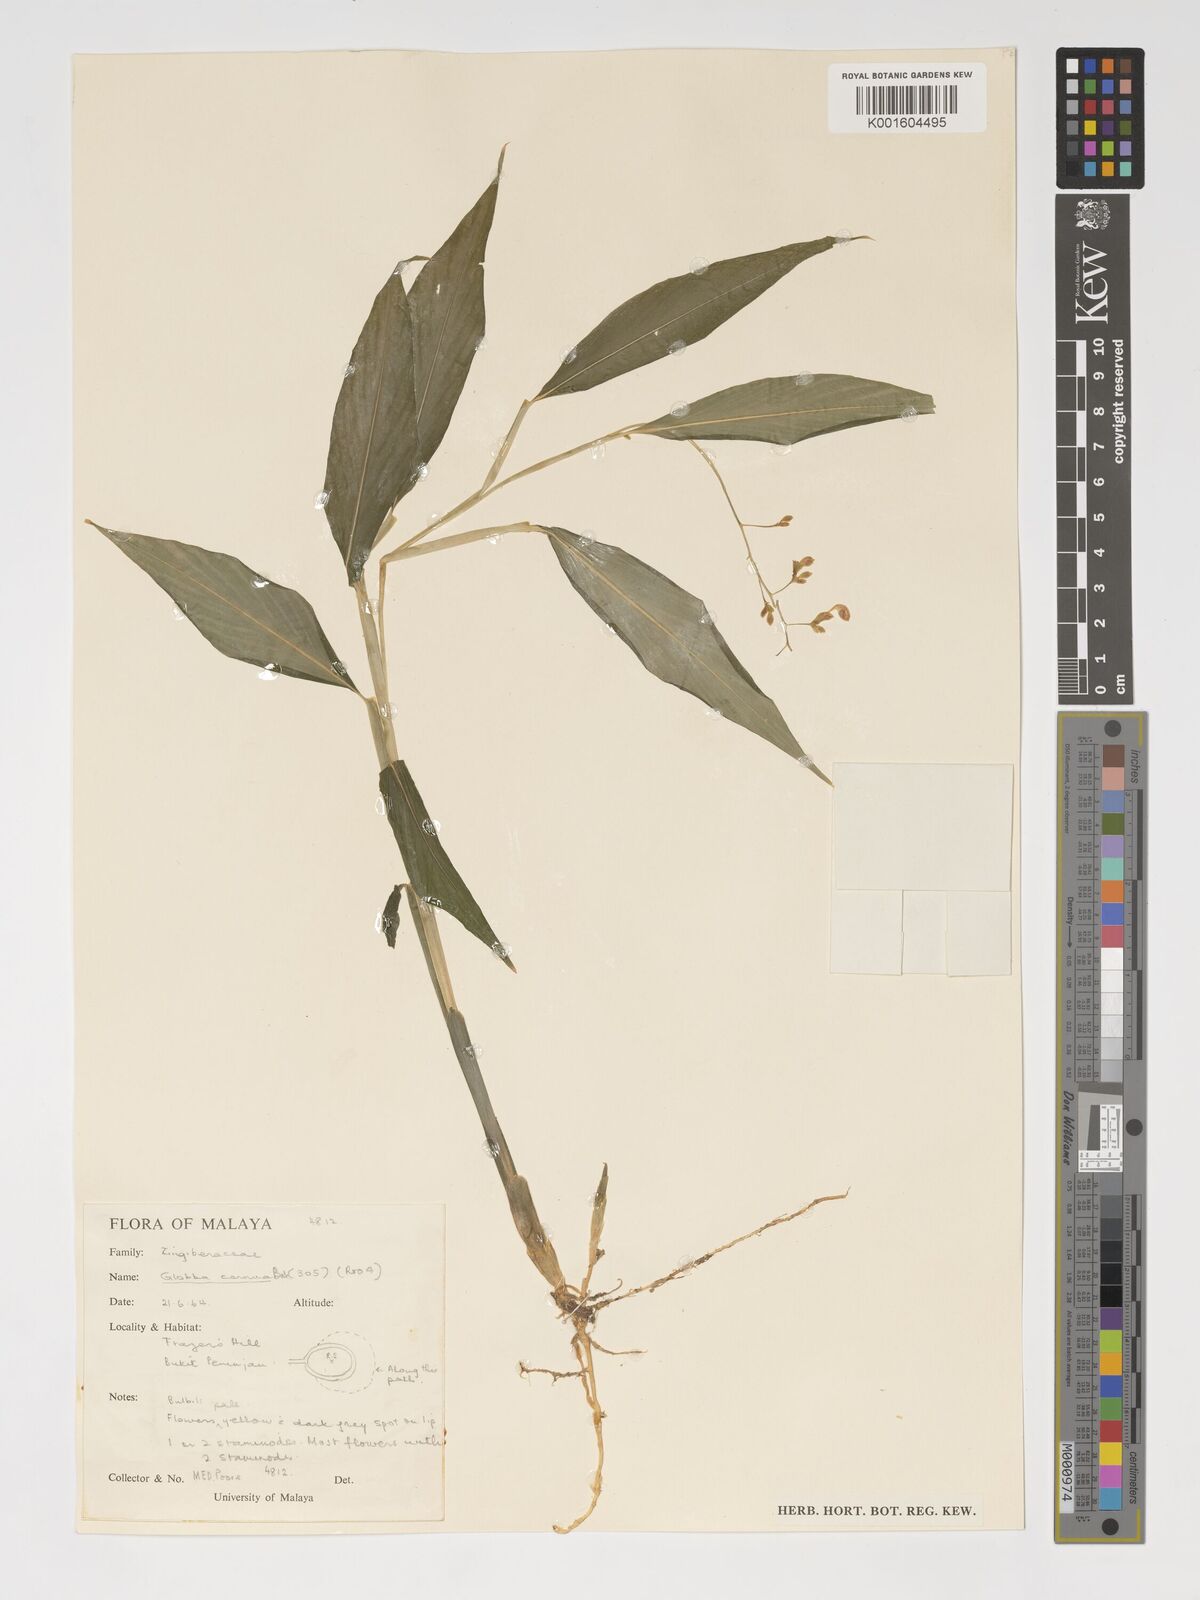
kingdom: Plantae
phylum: Tracheophyta
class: Liliopsida
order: Zingiberales
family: Zingiberaceae
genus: Globba
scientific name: Globba cernua
